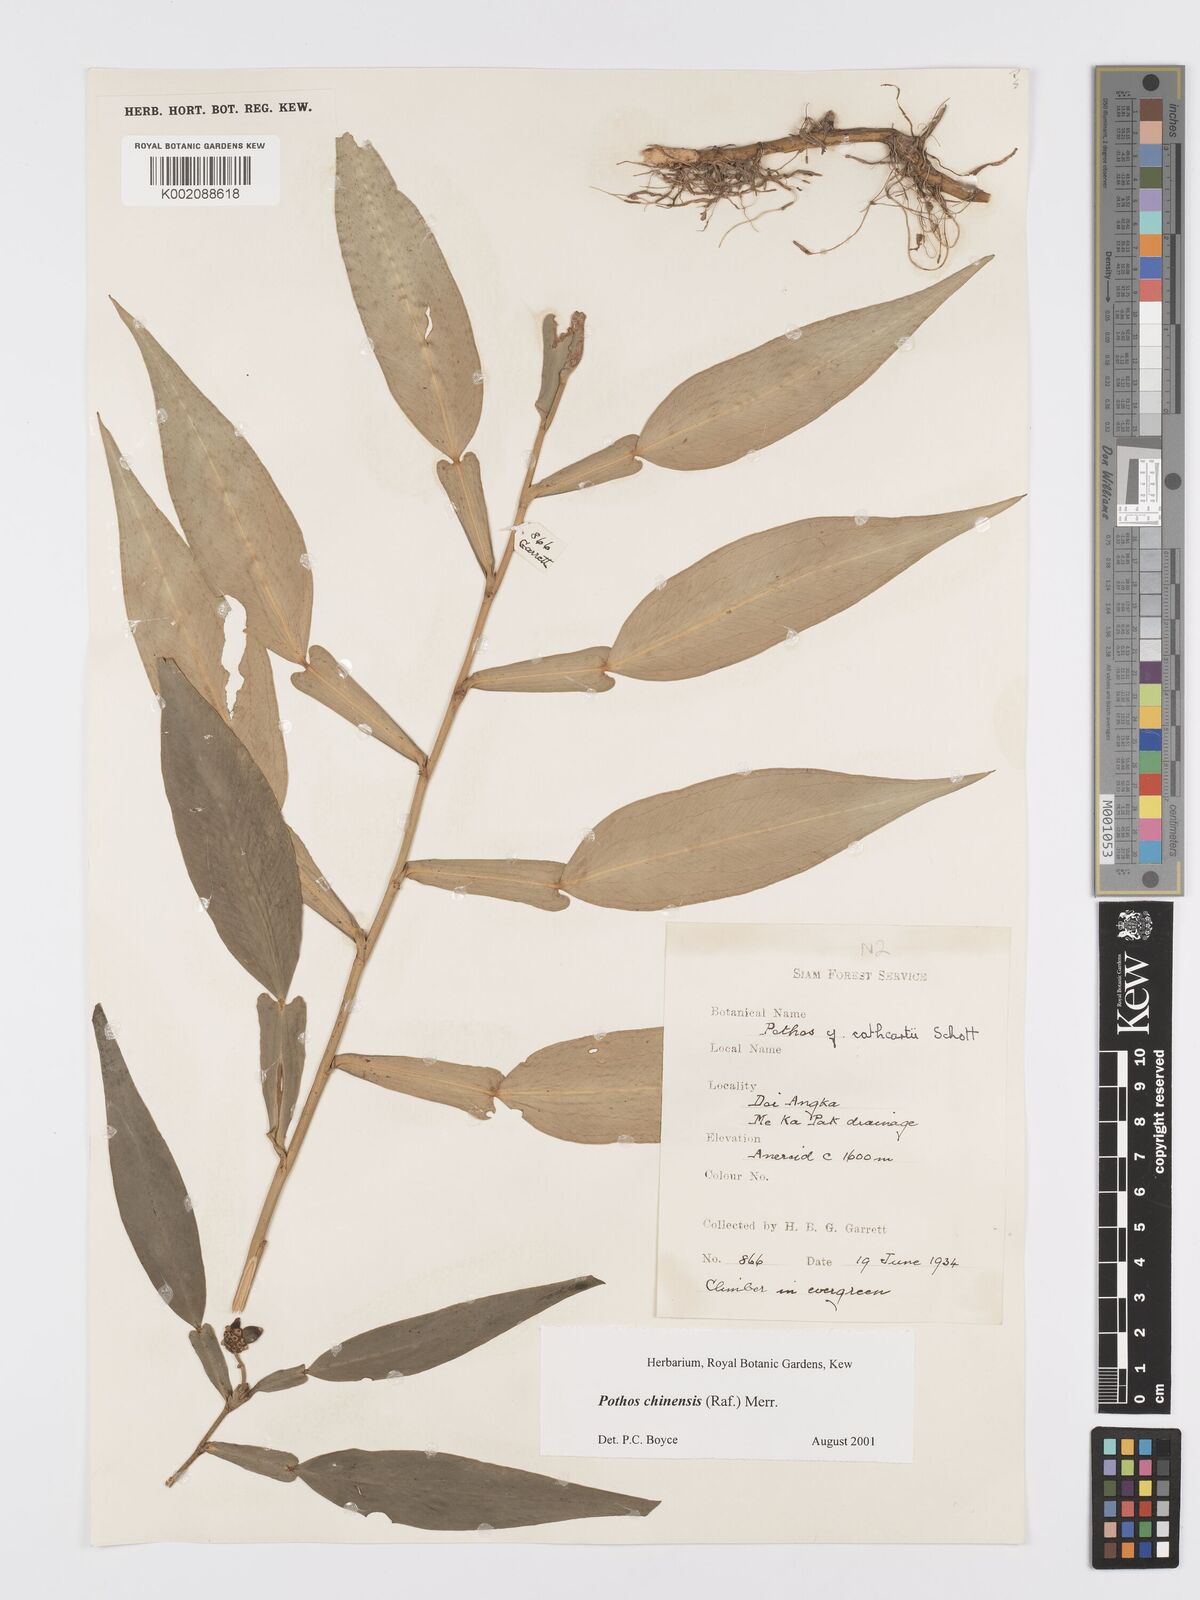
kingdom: Plantae
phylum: Tracheophyta
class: Liliopsida
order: Alismatales
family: Araceae
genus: Pothos
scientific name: Pothos chinensis
